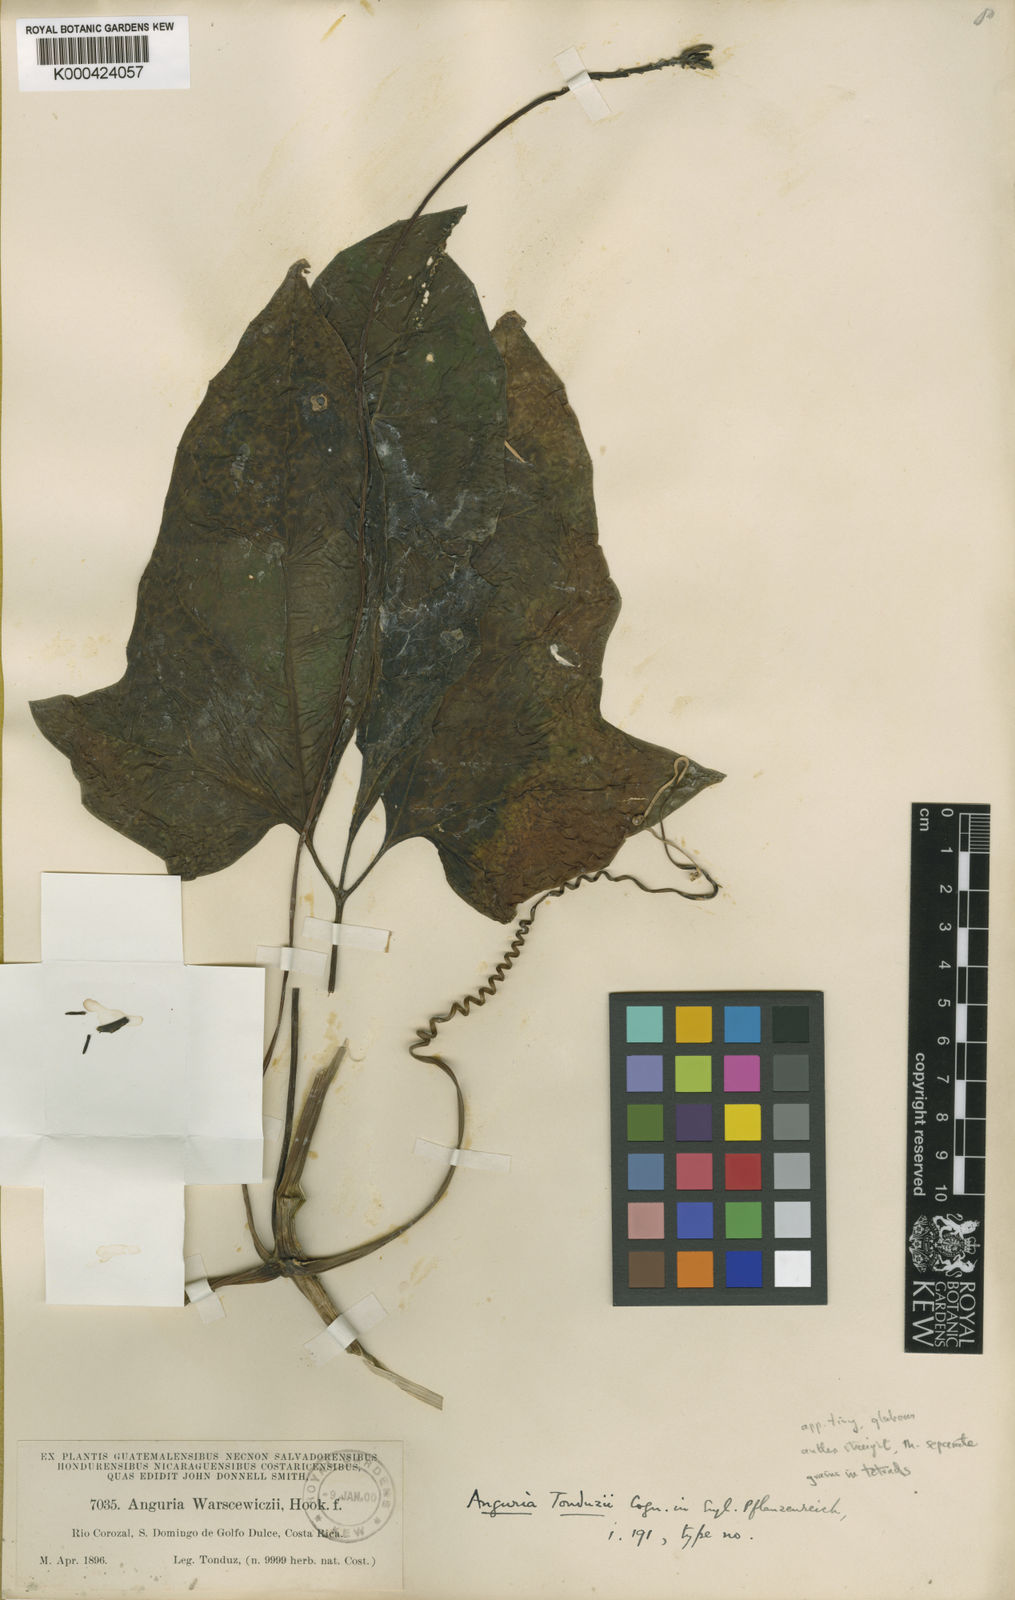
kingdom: Plantae
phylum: Tracheophyta
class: Magnoliopsida
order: Cucurbitales
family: Cucurbitaceae
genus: Psiguria
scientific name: Psiguria warscewiczii
